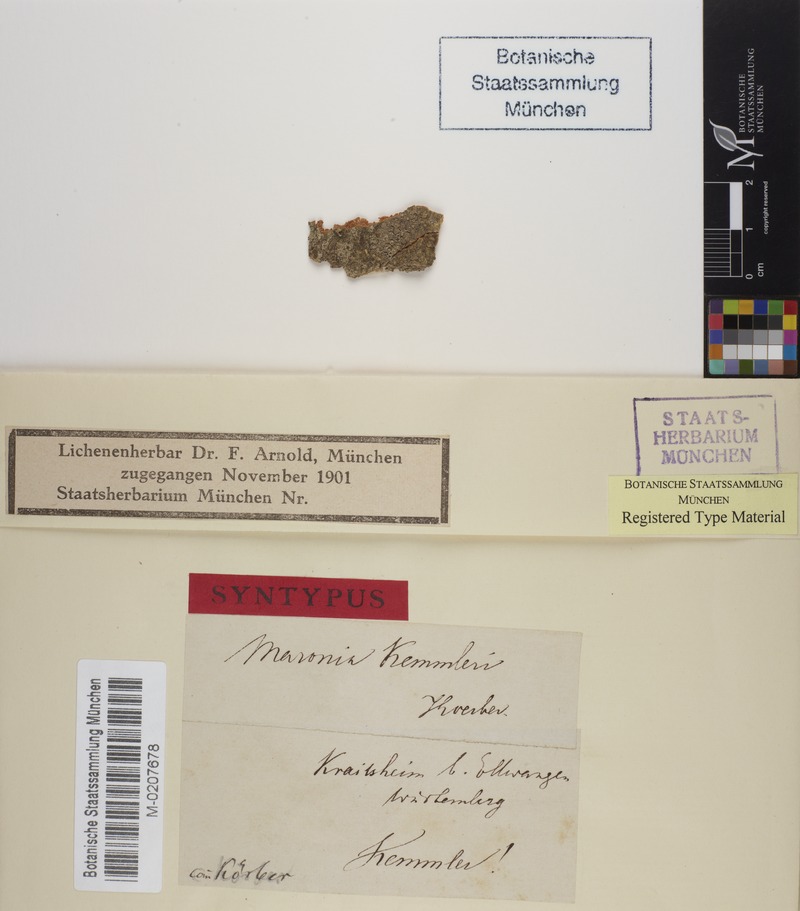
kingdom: Fungi
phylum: Ascomycota
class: Lecanoromycetes
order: Umbilicariales
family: Fuscideaceae
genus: Maronea
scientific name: Maronea constans
